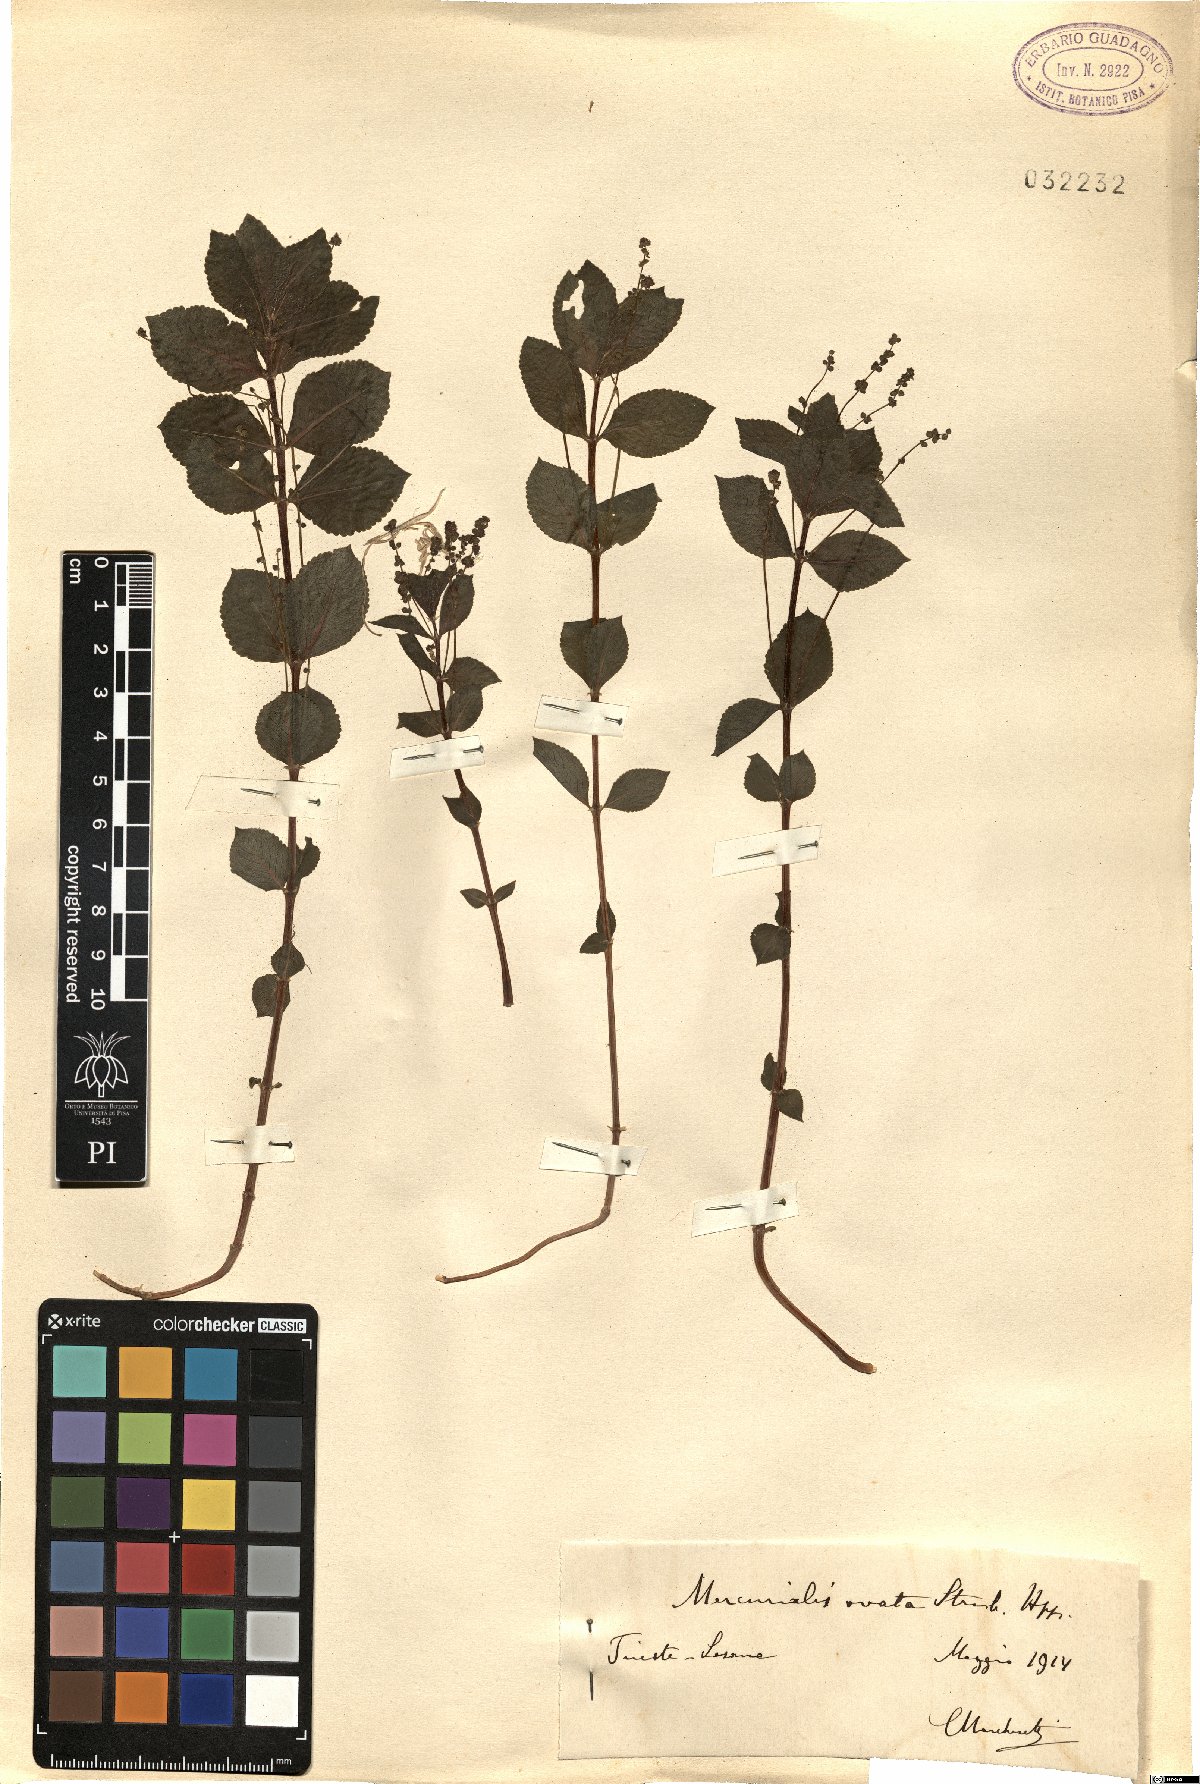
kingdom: Plantae
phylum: Tracheophyta
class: Magnoliopsida
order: Malpighiales
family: Euphorbiaceae
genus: Mercurialis
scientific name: Mercurialis ovata
